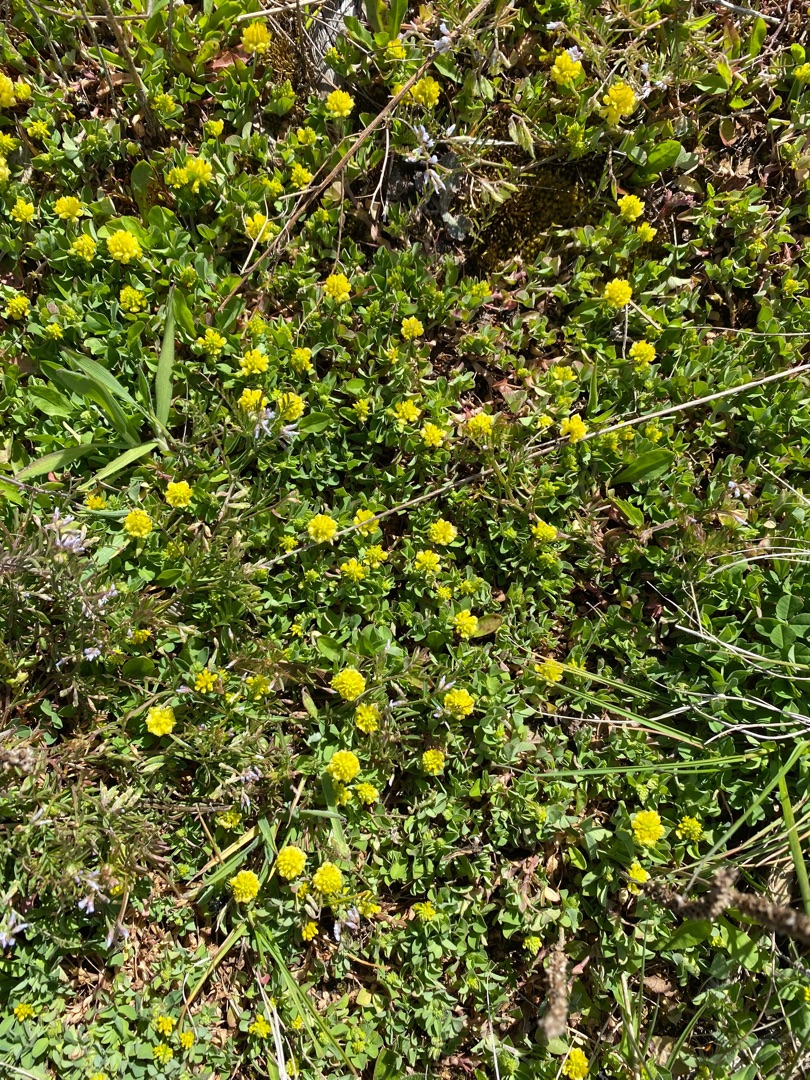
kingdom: Plantae
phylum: Tracheophyta
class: Magnoliopsida
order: Fabales
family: Fabaceae
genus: Trifolium
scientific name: Trifolium campestre
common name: Gul kløver
